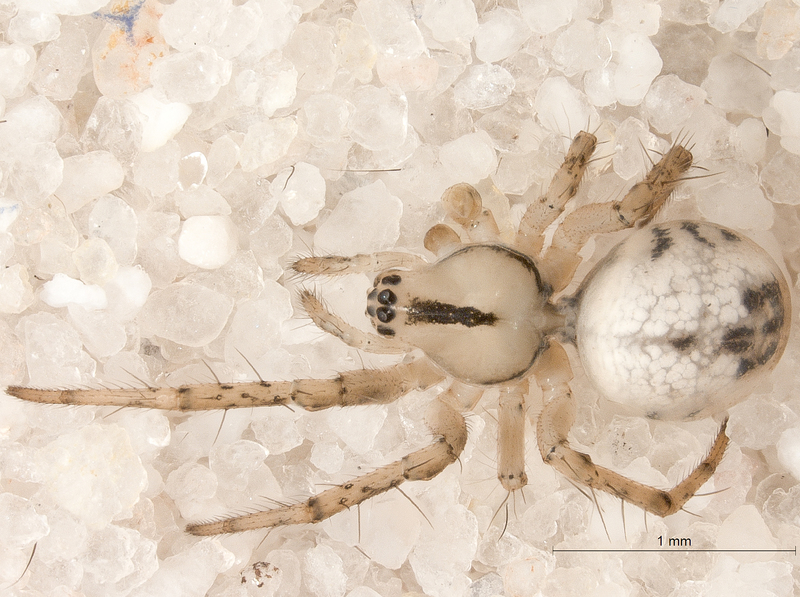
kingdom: Animalia
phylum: Arthropoda
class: Arachnida
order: Araneae
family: Araneidae
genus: Mangora
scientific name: Mangora acalypha
